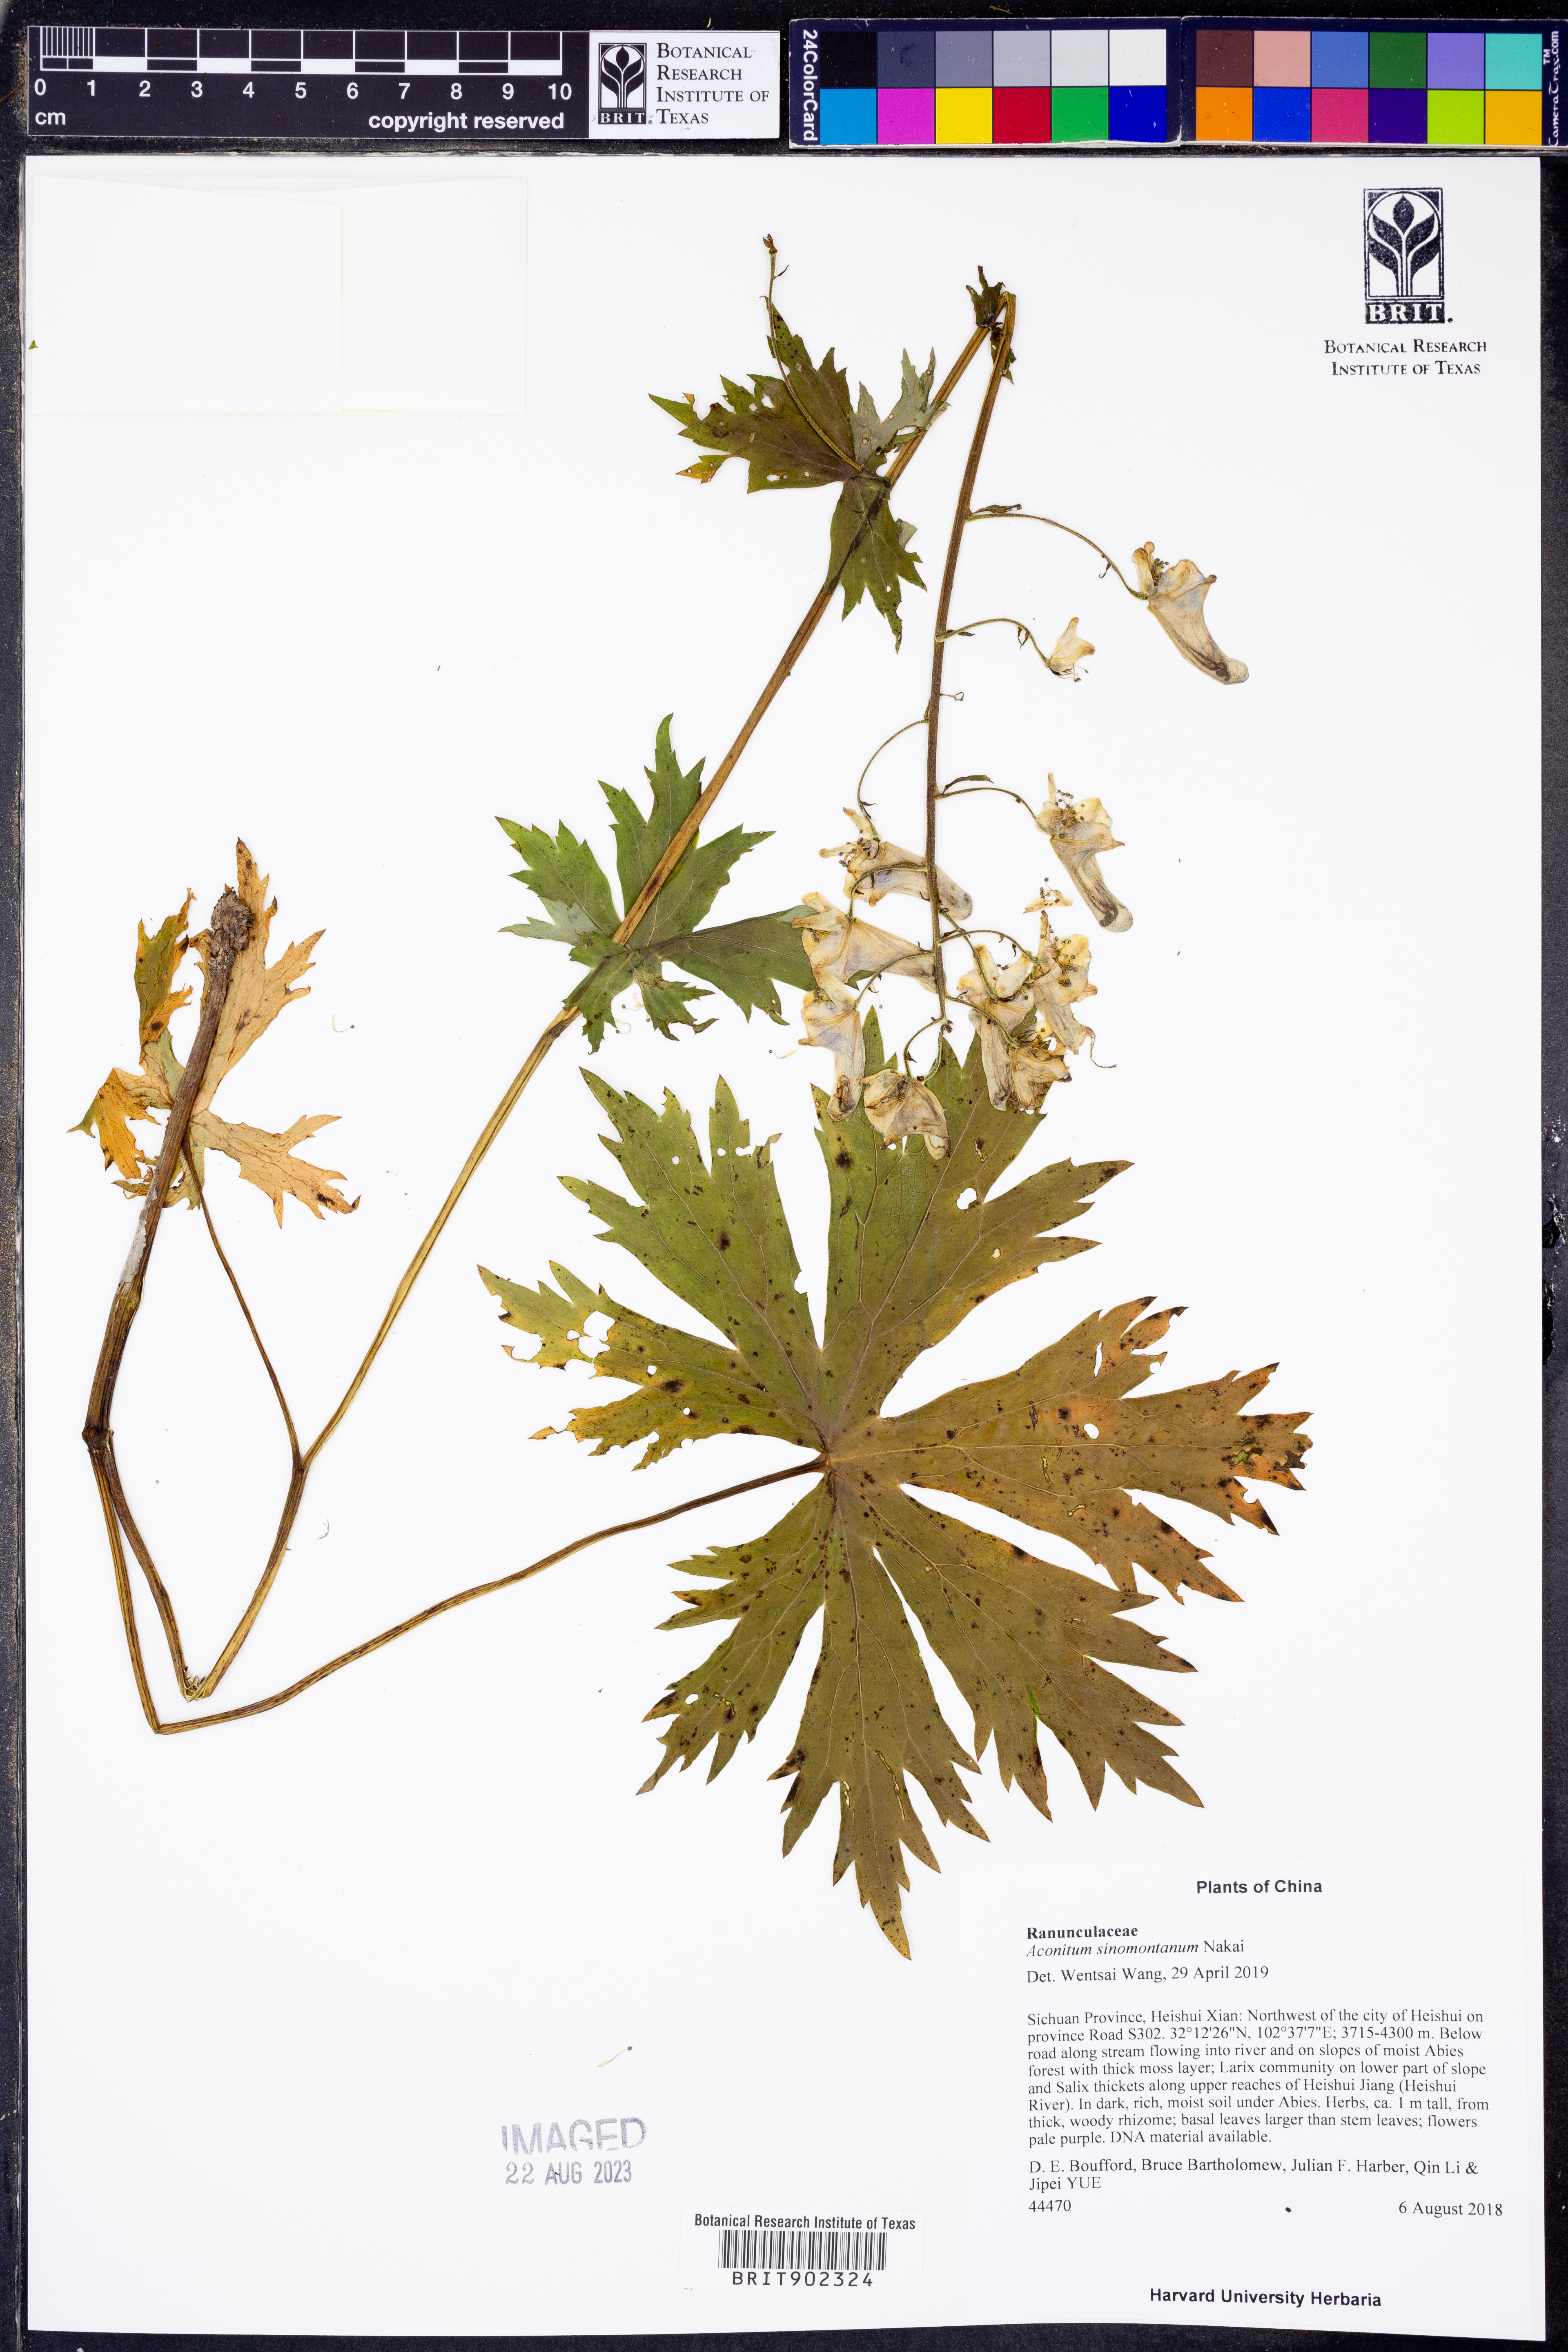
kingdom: Plantae
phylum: Tracheophyta
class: Magnoliopsida
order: Ranunculales
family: Ranunculaceae
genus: Aconitum
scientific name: Aconitum sinomontanum
